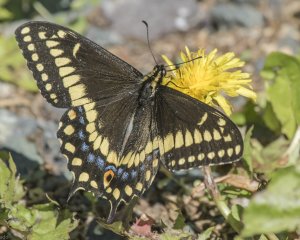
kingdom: Animalia
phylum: Arthropoda
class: Insecta
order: Lepidoptera
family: Papilionidae
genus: Papilio
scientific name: Papilio brevicauda
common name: Short-tailed Swallowtail
